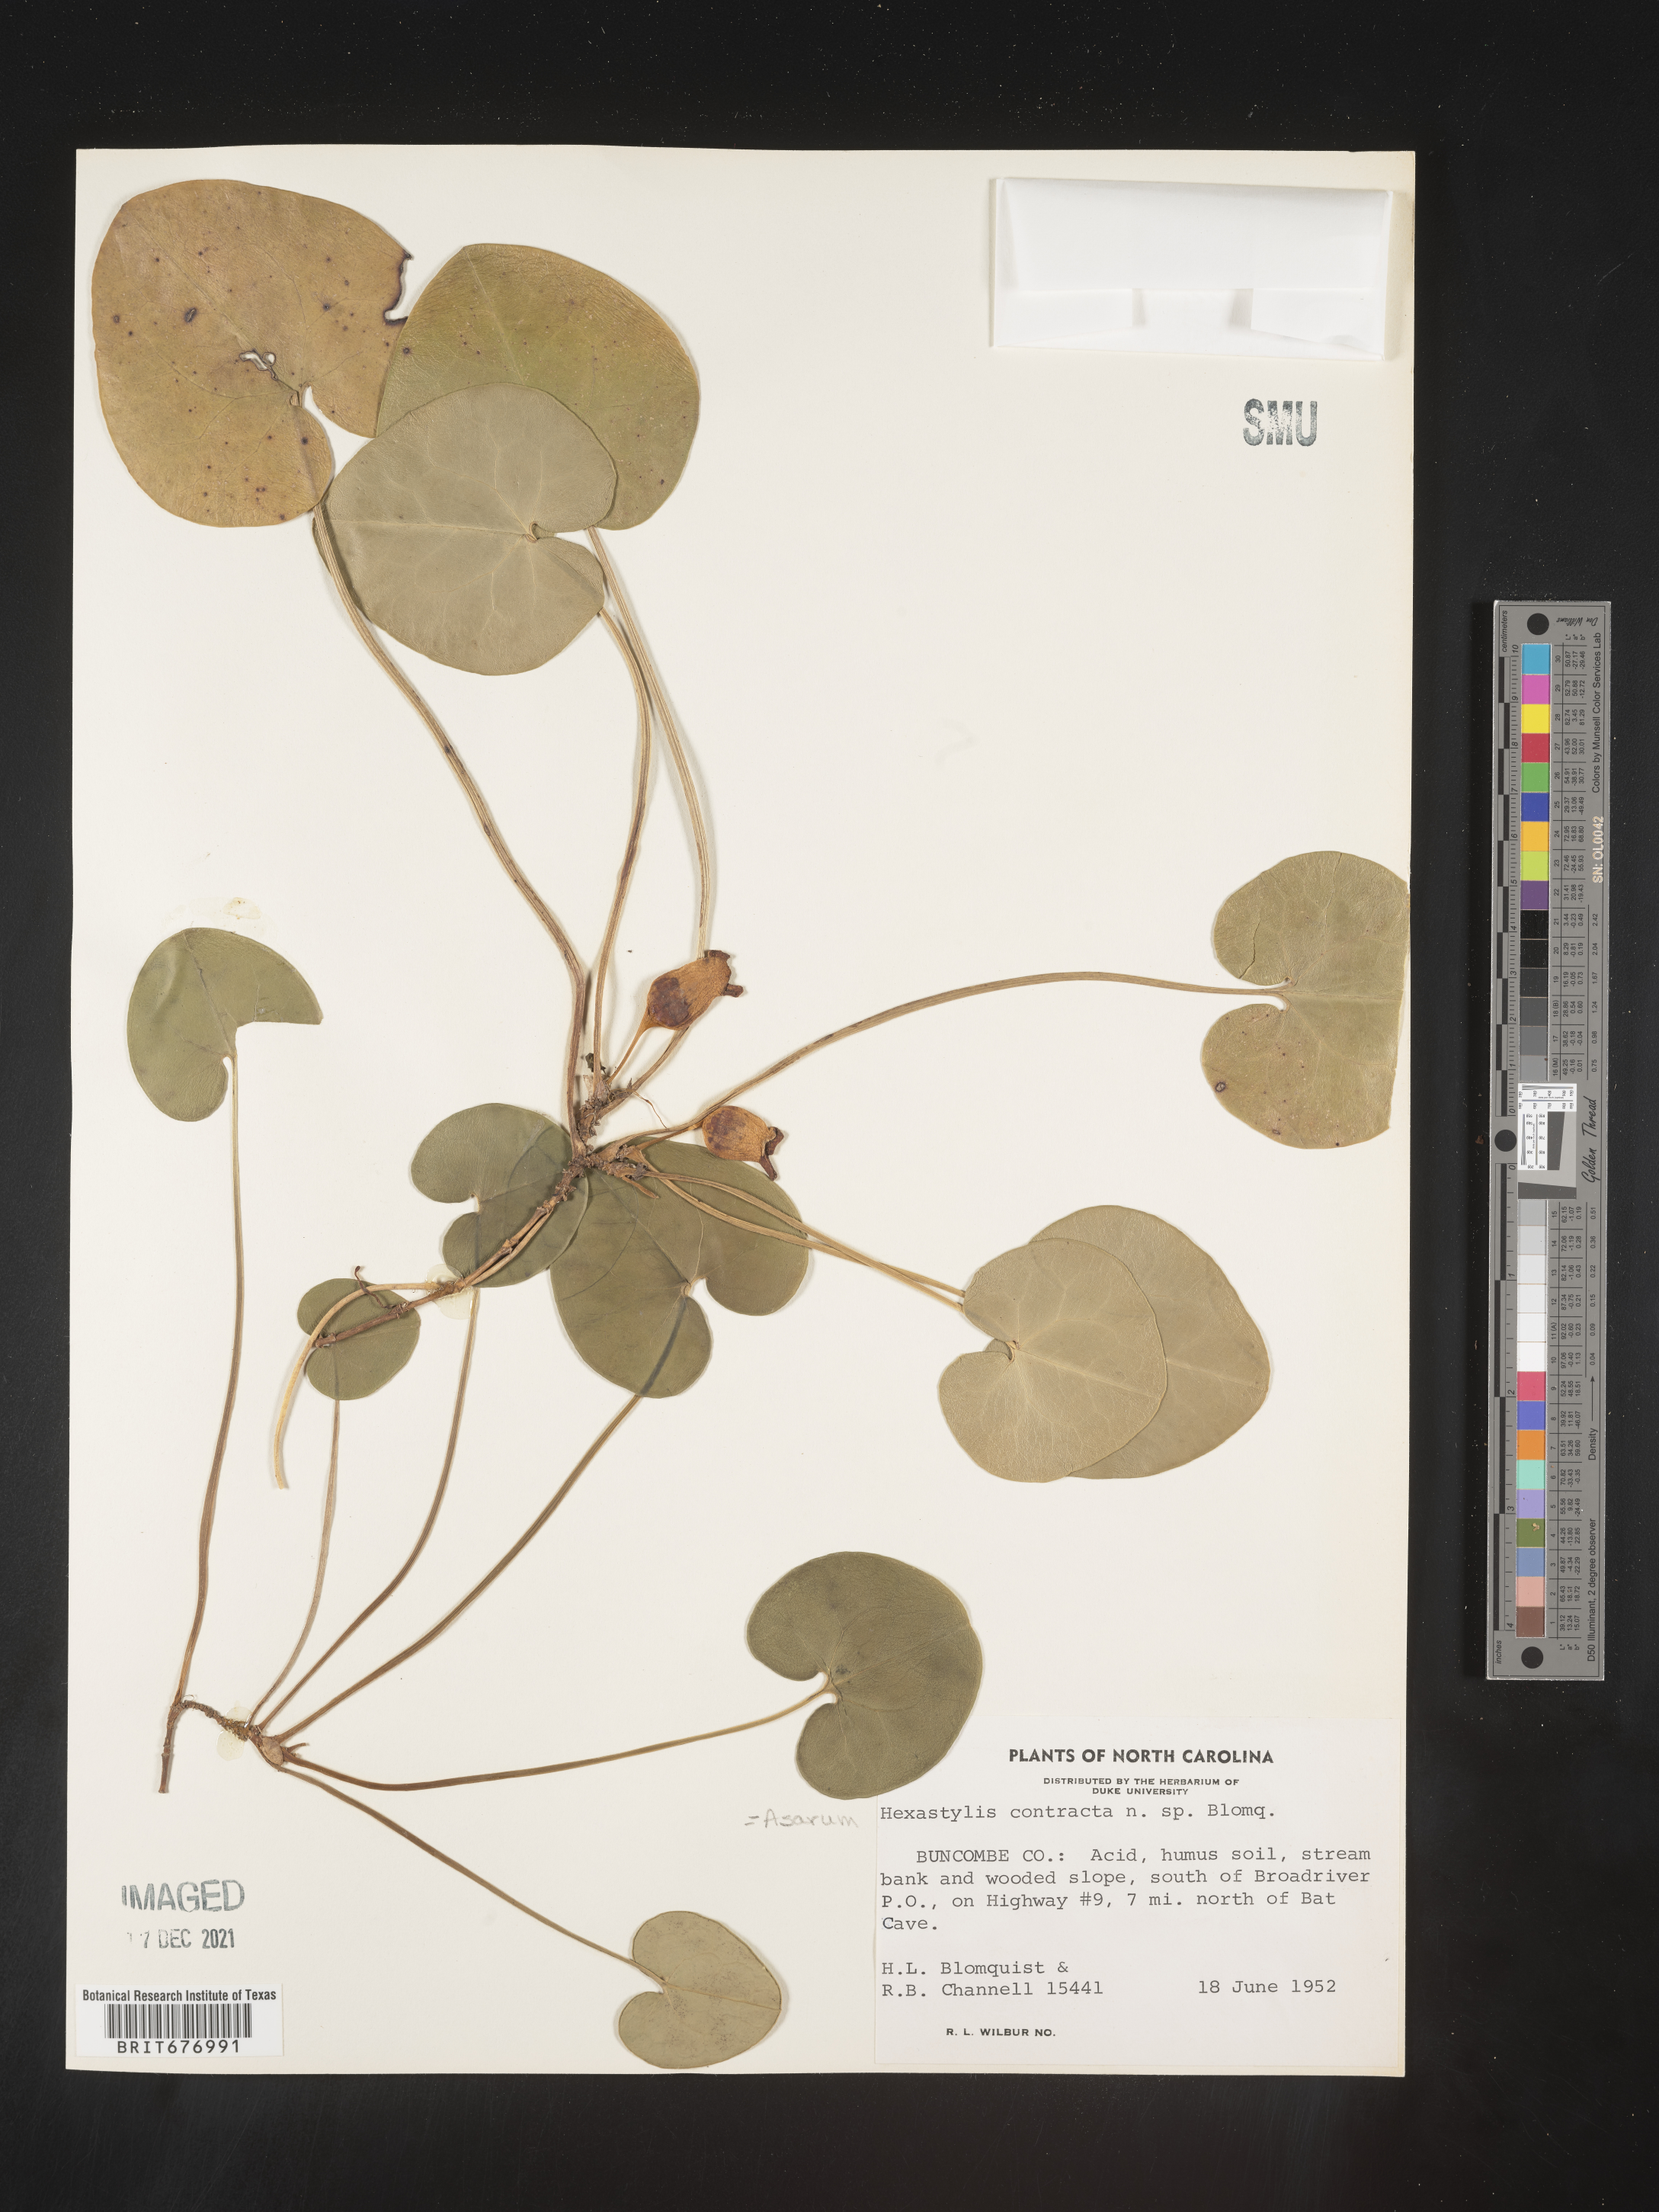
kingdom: Plantae
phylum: Tracheophyta
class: Magnoliopsida
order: Piperales
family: Aristolochiaceae
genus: Asarum
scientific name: Asarum
